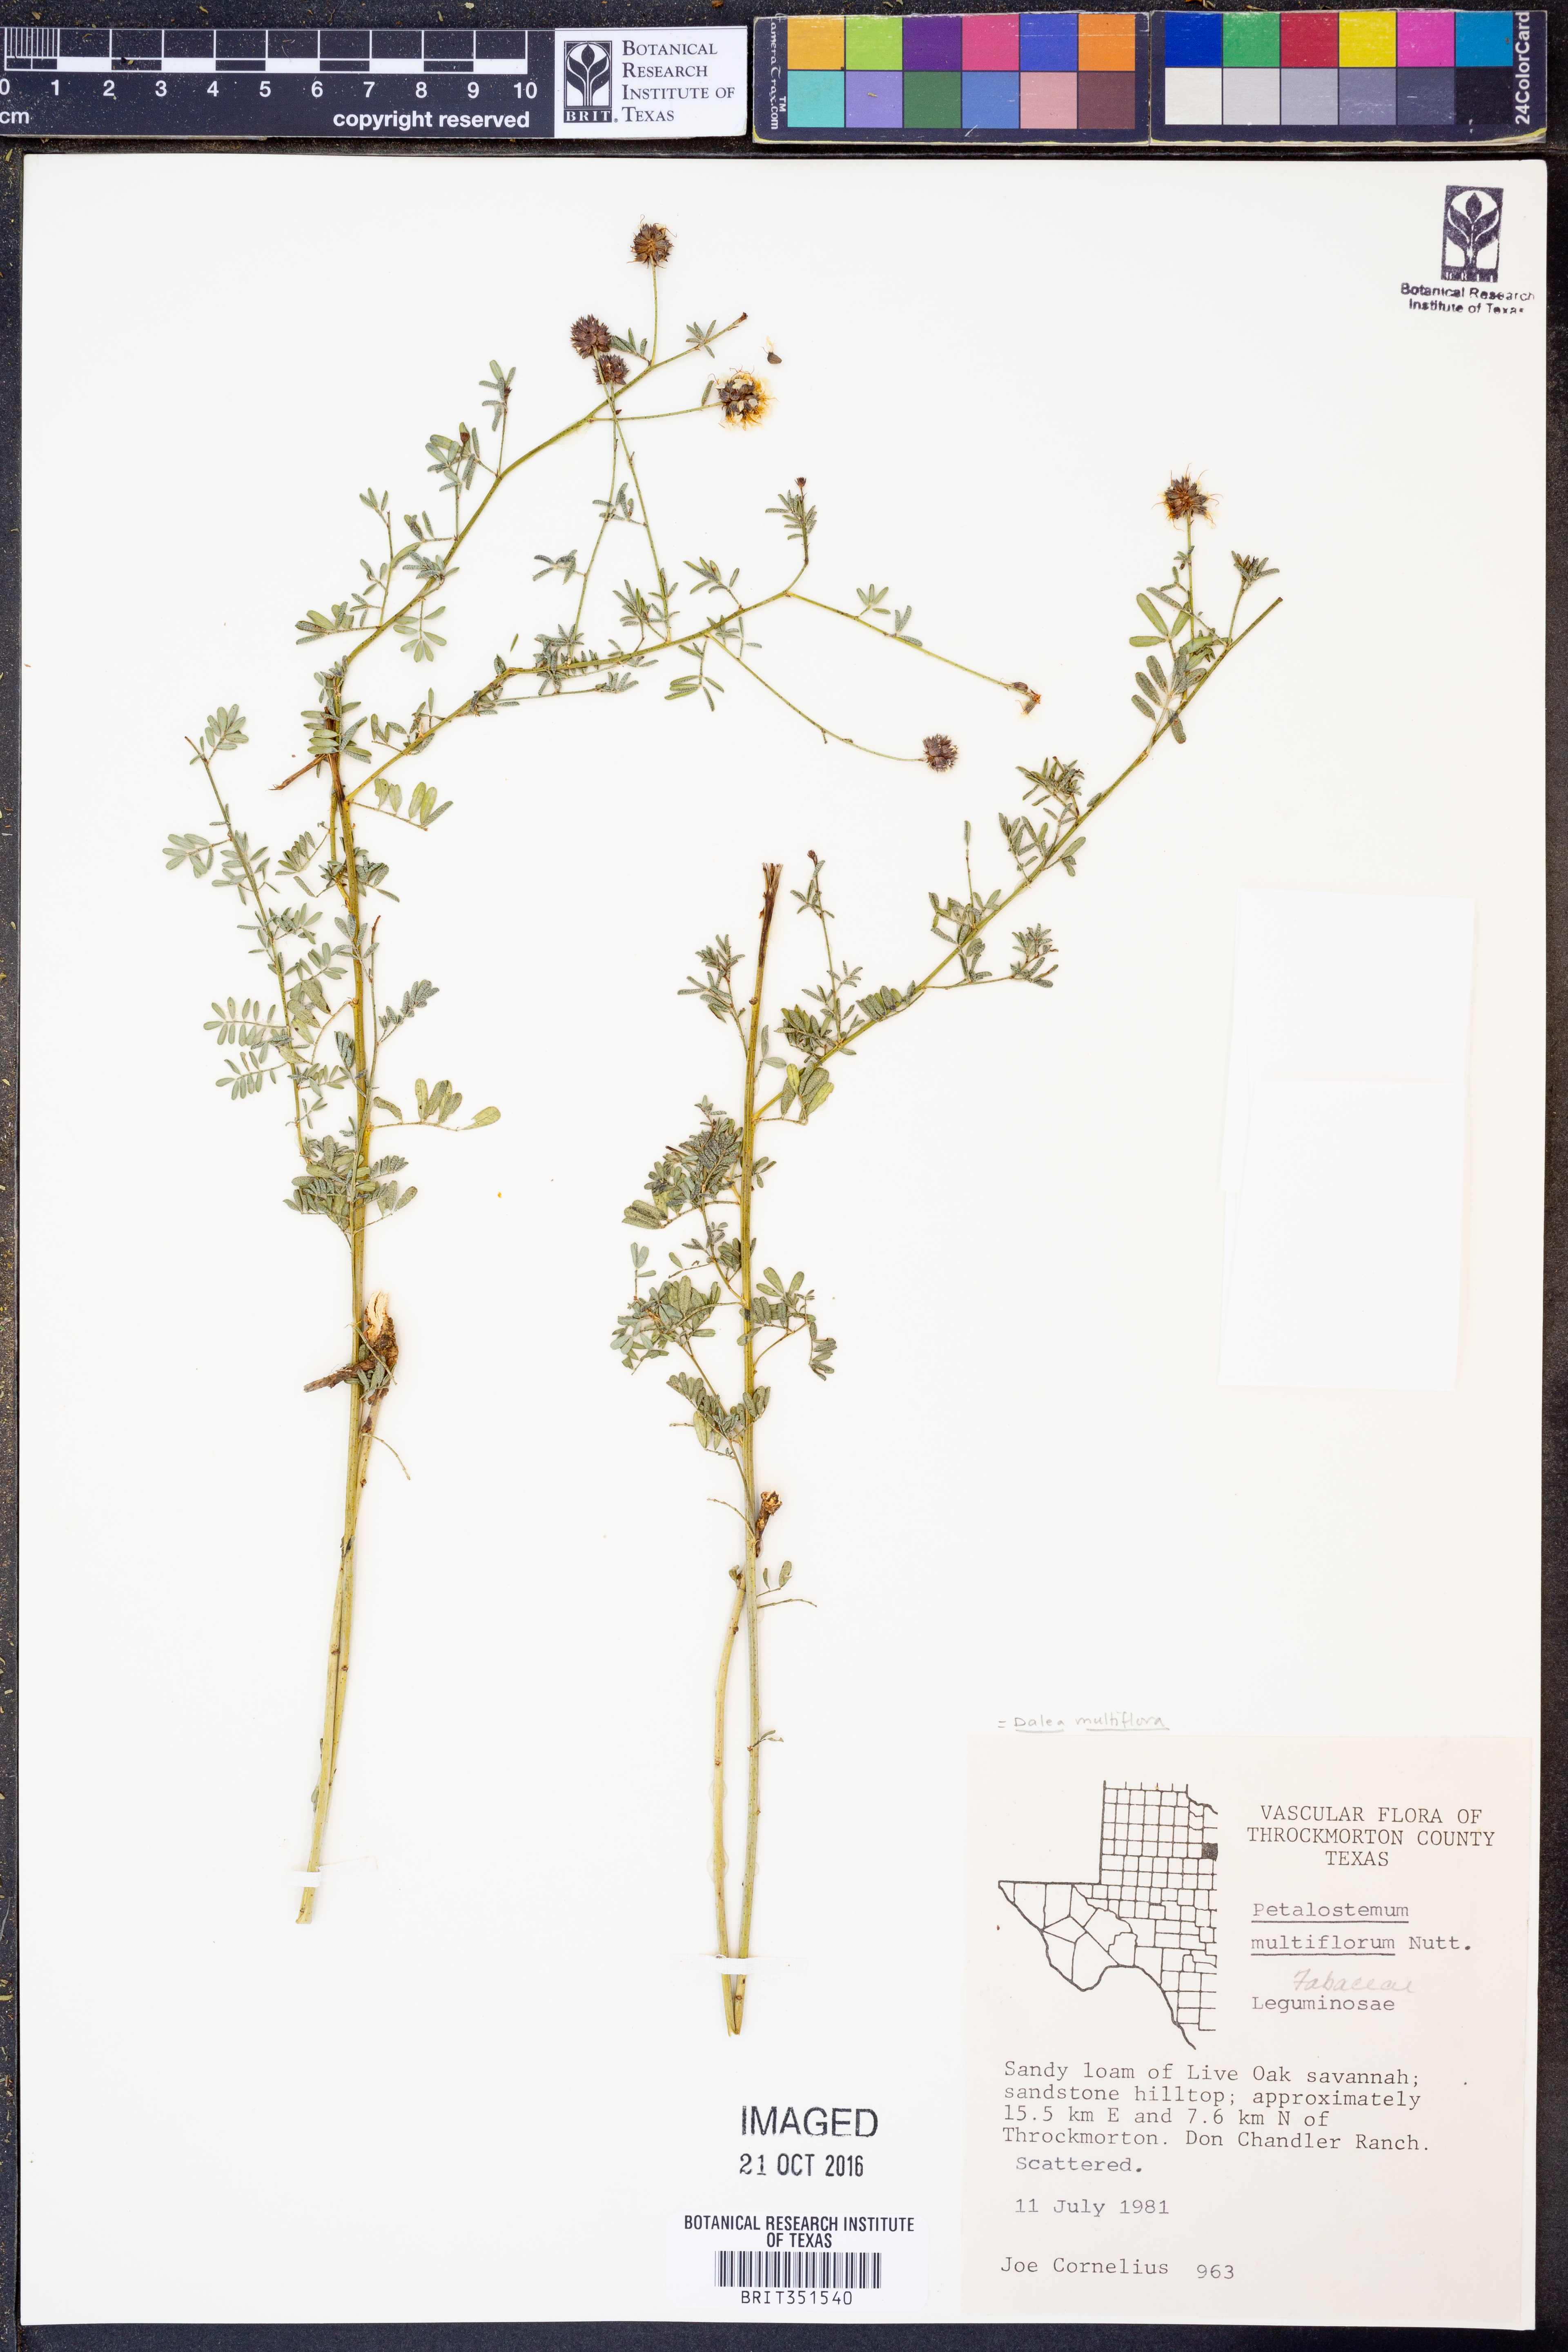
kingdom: Plantae
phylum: Tracheophyta
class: Magnoliopsida
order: Fabales
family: Fabaceae
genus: Dalea
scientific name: Dalea multiflora
